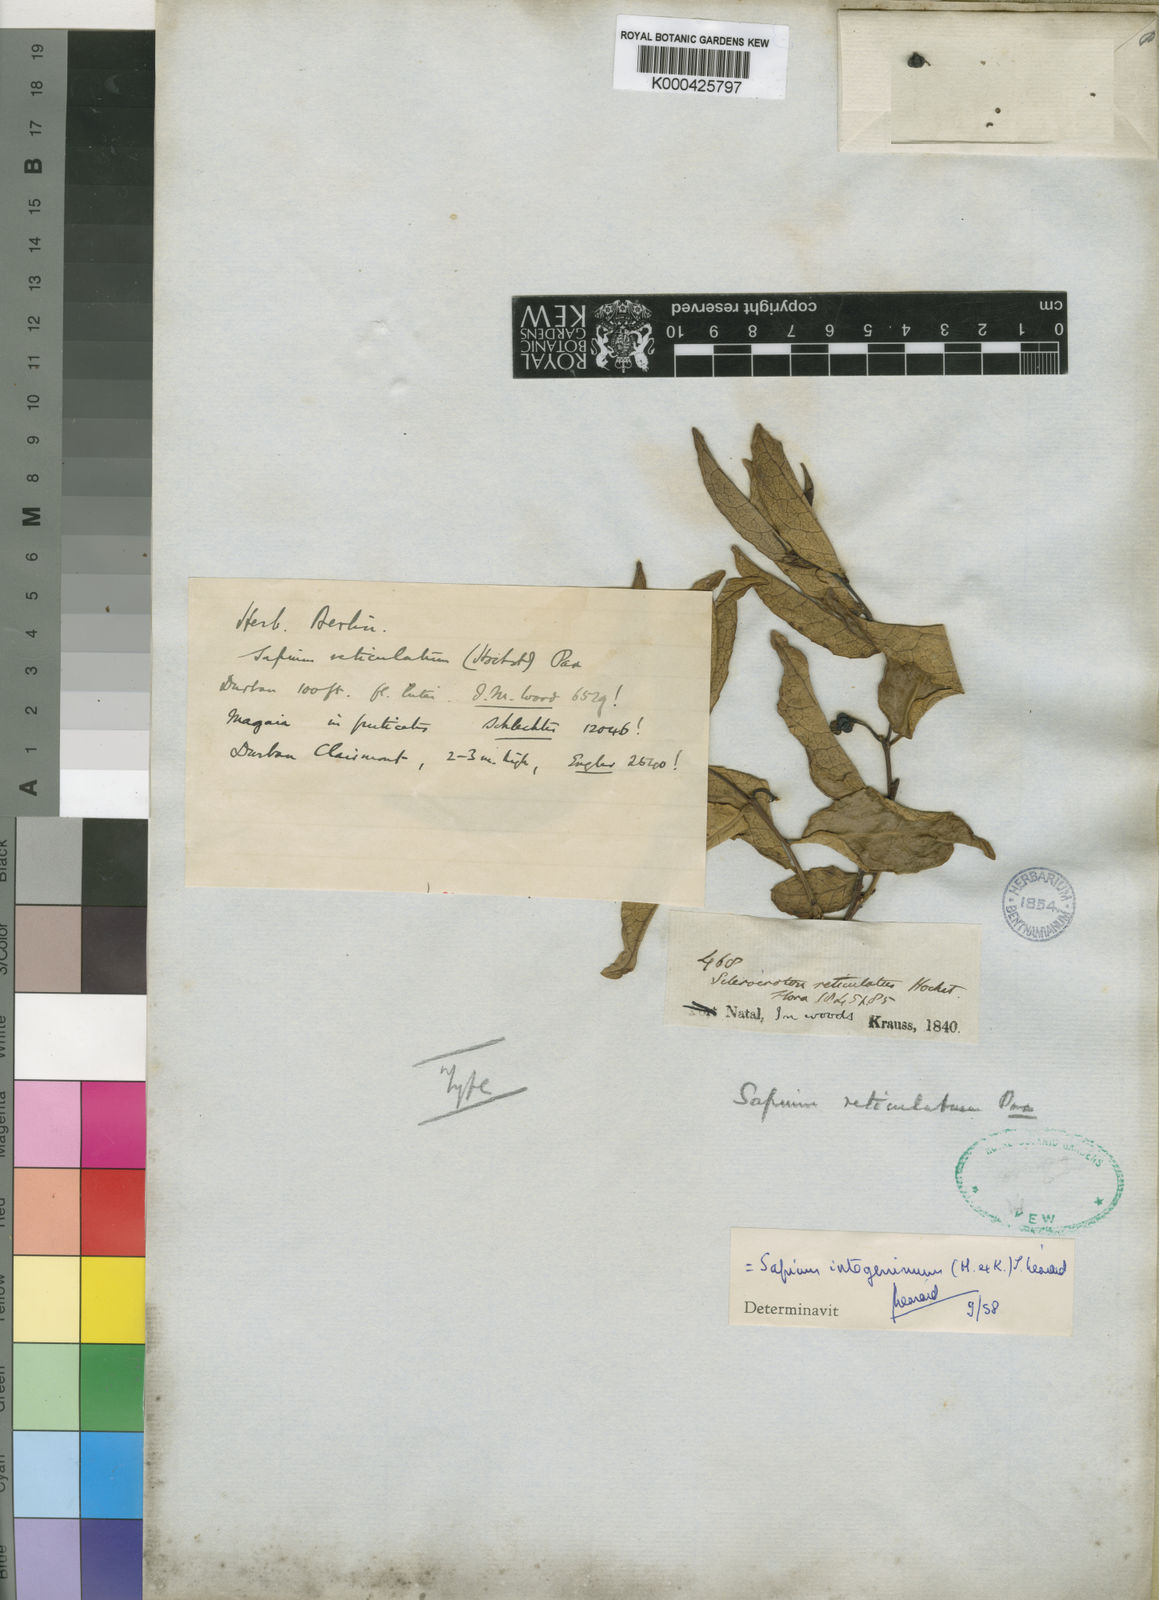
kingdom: Plantae
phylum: Tracheophyta
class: Magnoliopsida
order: Malpighiales
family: Euphorbiaceae
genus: Sapium
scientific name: Sapium
